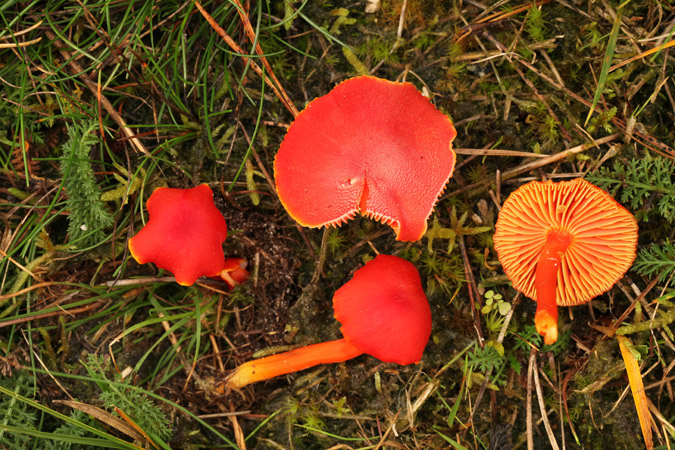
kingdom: Fungi
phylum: Basidiomycota
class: Agaricomycetes
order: Agaricales
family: Hygrophoraceae
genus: Hygrocybe
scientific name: Hygrocybe miniata
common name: mønje-vokshat
